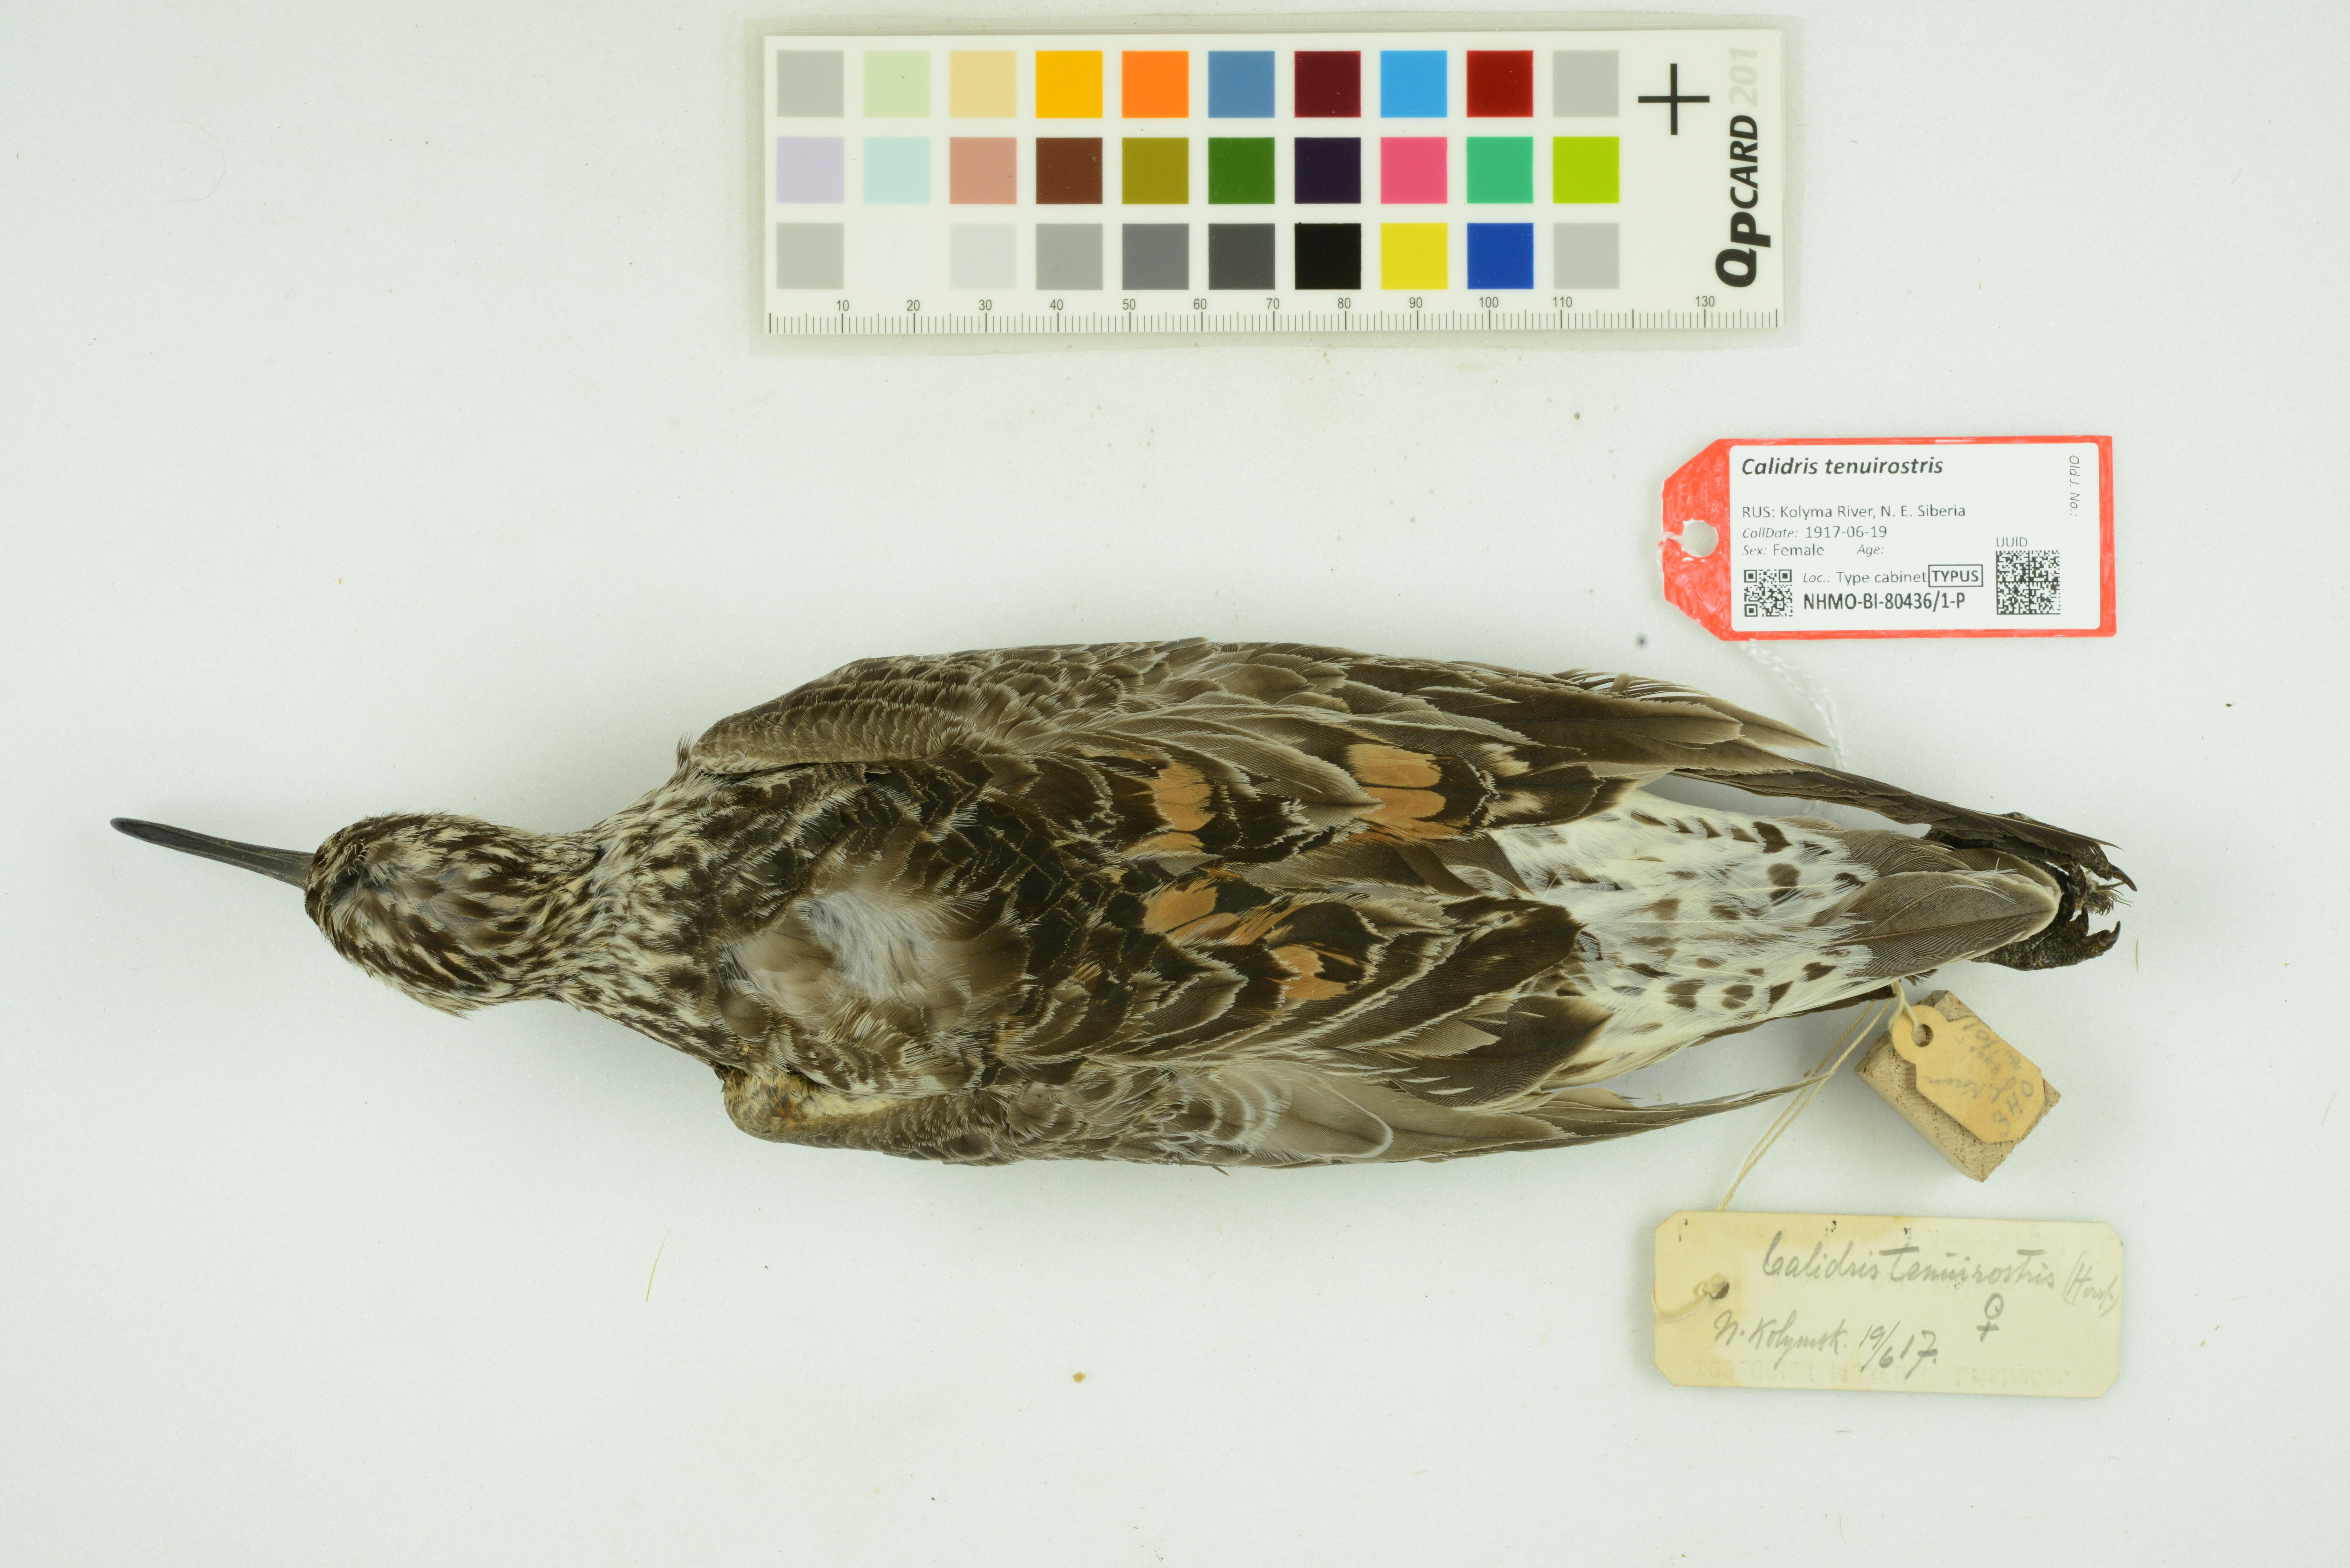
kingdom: Animalia
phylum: Chordata
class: Aves
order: Charadriiformes
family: Scolopacidae
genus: Calidris
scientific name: Calidris tenuirostris
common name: Great knot
